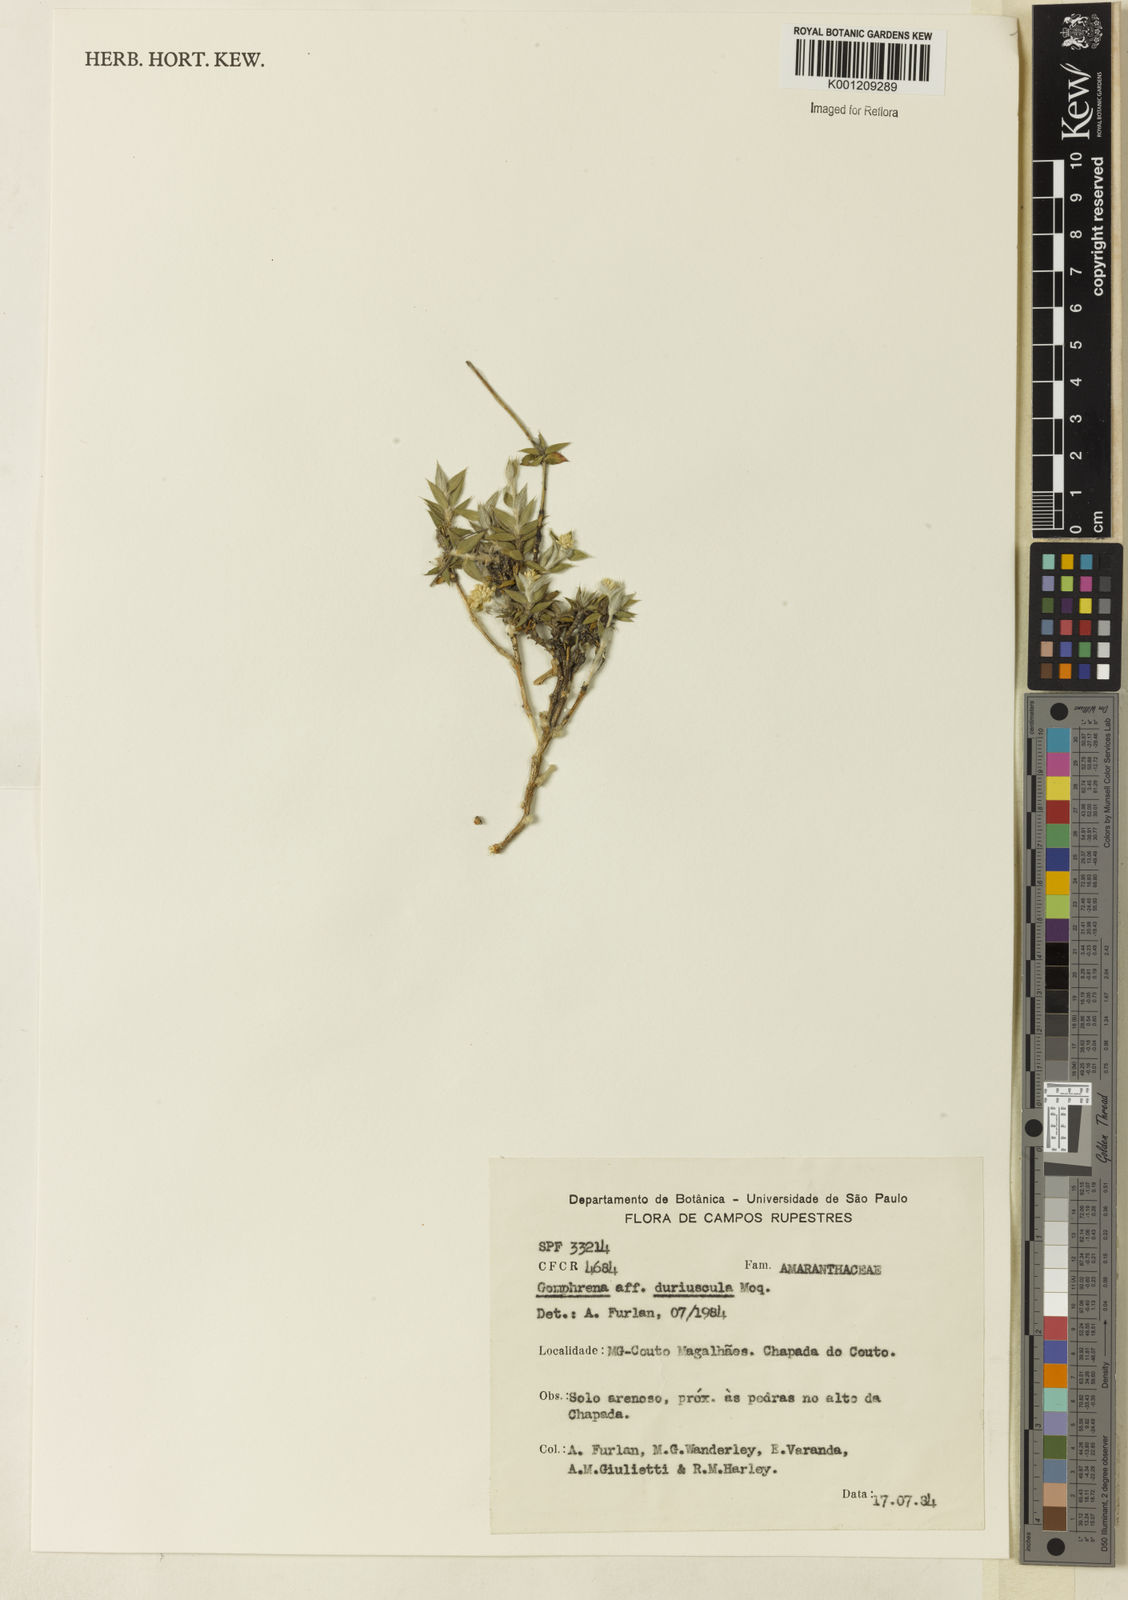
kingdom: Plantae
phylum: Tracheophyta
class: Magnoliopsida
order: Caryophyllales
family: Amaranthaceae
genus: Gomphrena
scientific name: Gomphrena duriuscula
